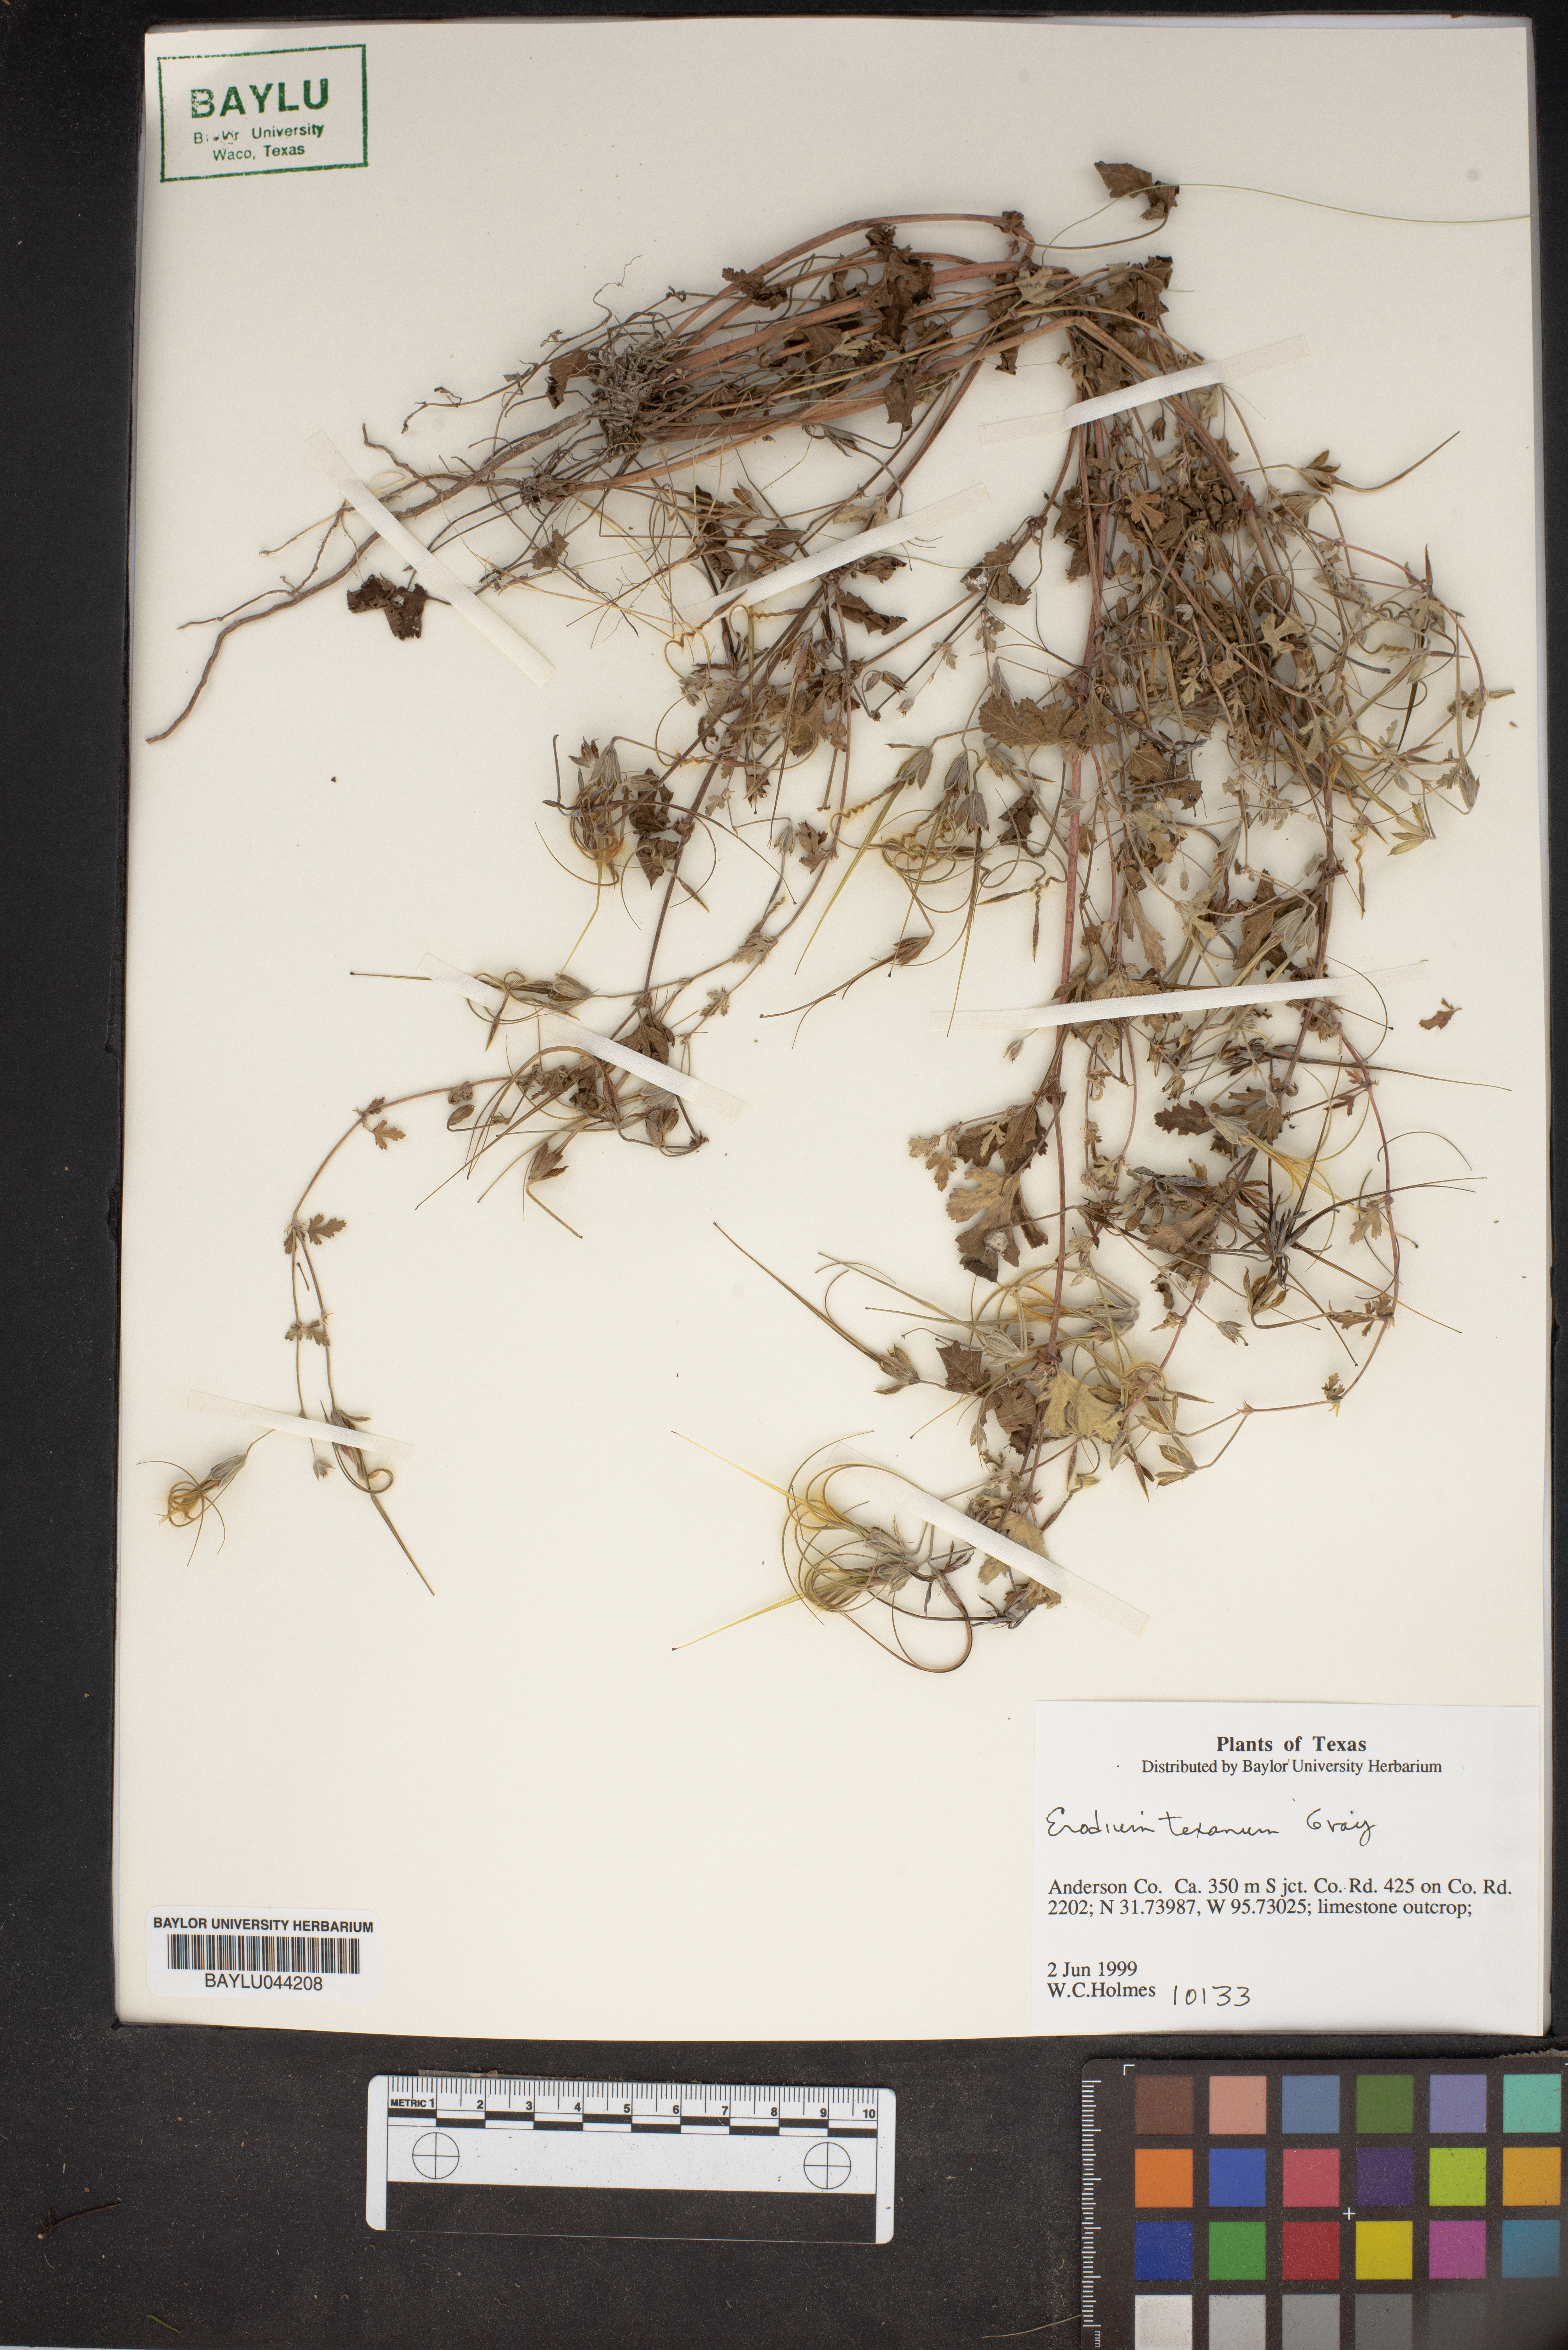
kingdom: Plantae
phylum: Tracheophyta
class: Magnoliopsida
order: Geraniales
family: Geraniaceae
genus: Erodium
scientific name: Erodium texanum
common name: Texas stork's-bill
